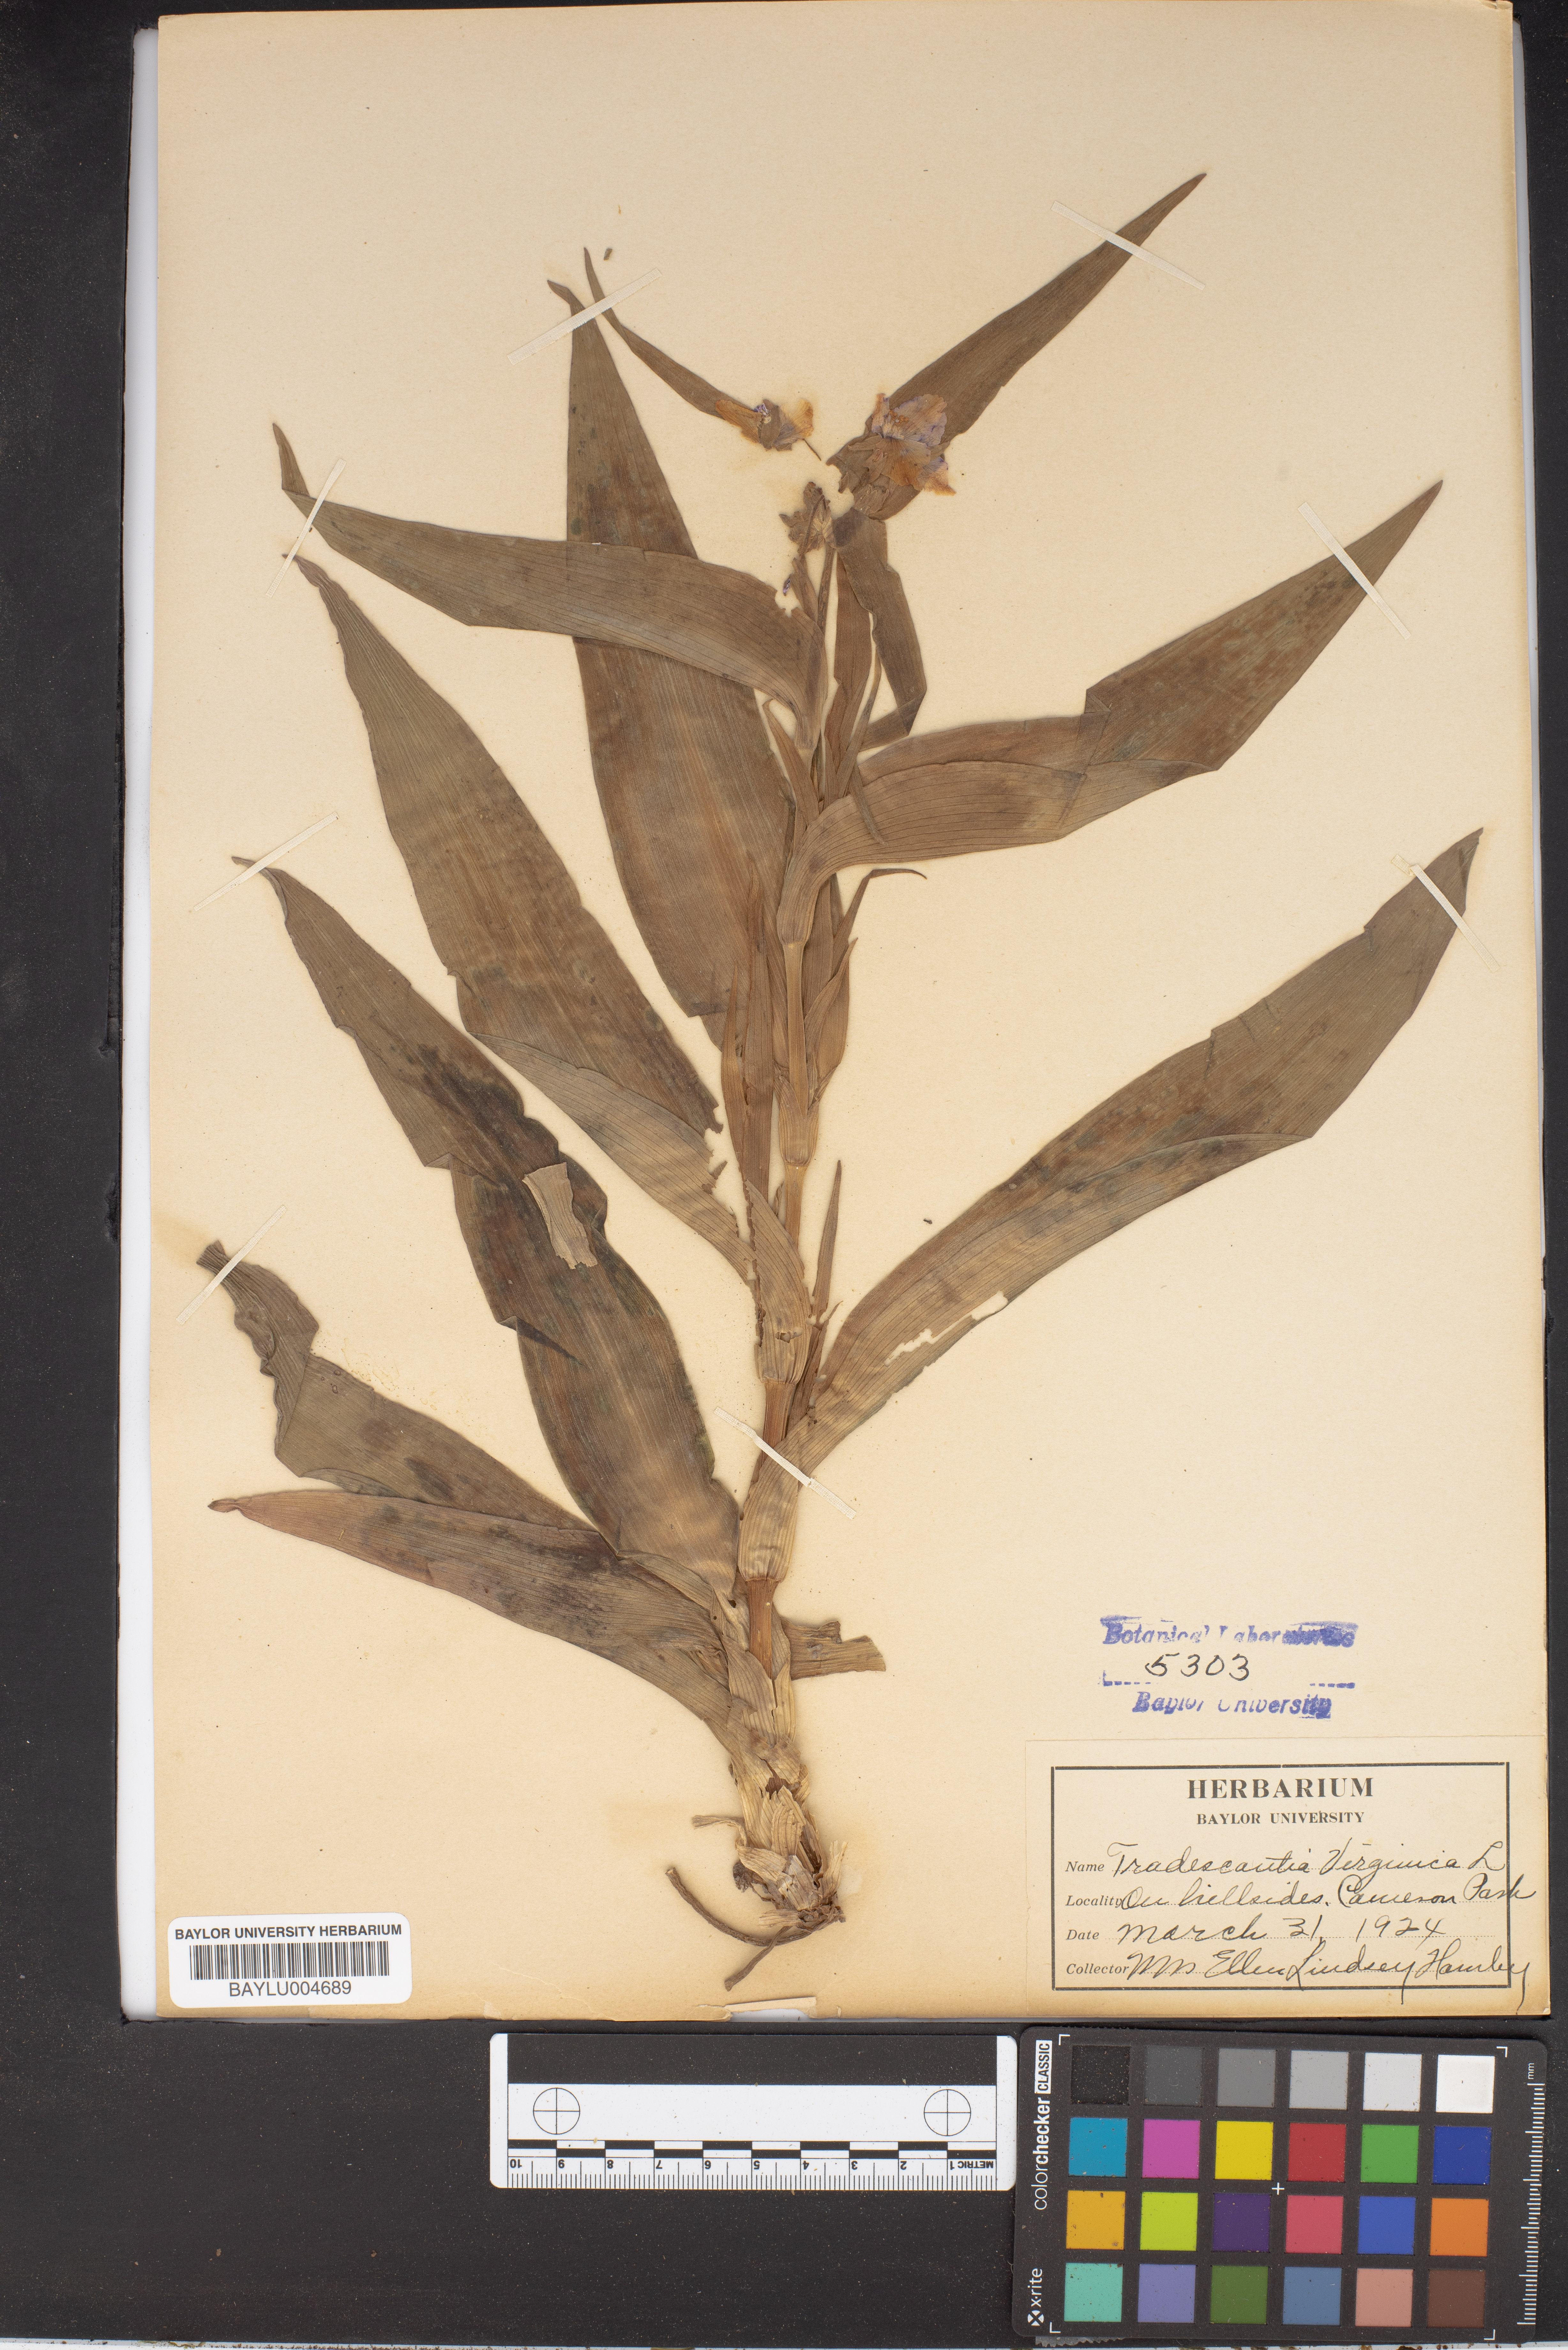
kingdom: Plantae
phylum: Tracheophyta
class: Liliopsida
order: Commelinales
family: Commelinaceae
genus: Callisia
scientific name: Callisia rosea
